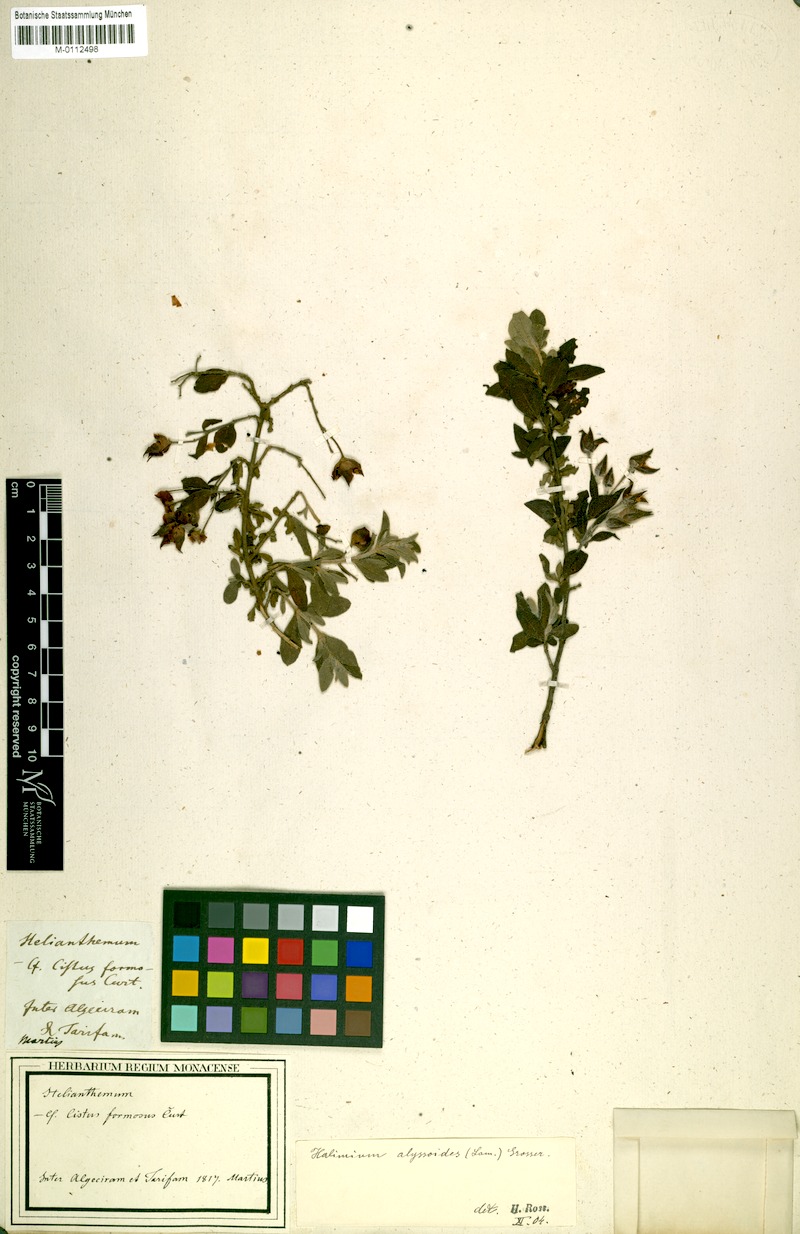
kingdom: Plantae
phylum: Tracheophyta
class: Magnoliopsida
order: Malvales
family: Cistaceae
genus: Halimium
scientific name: Halimium alyssoides
